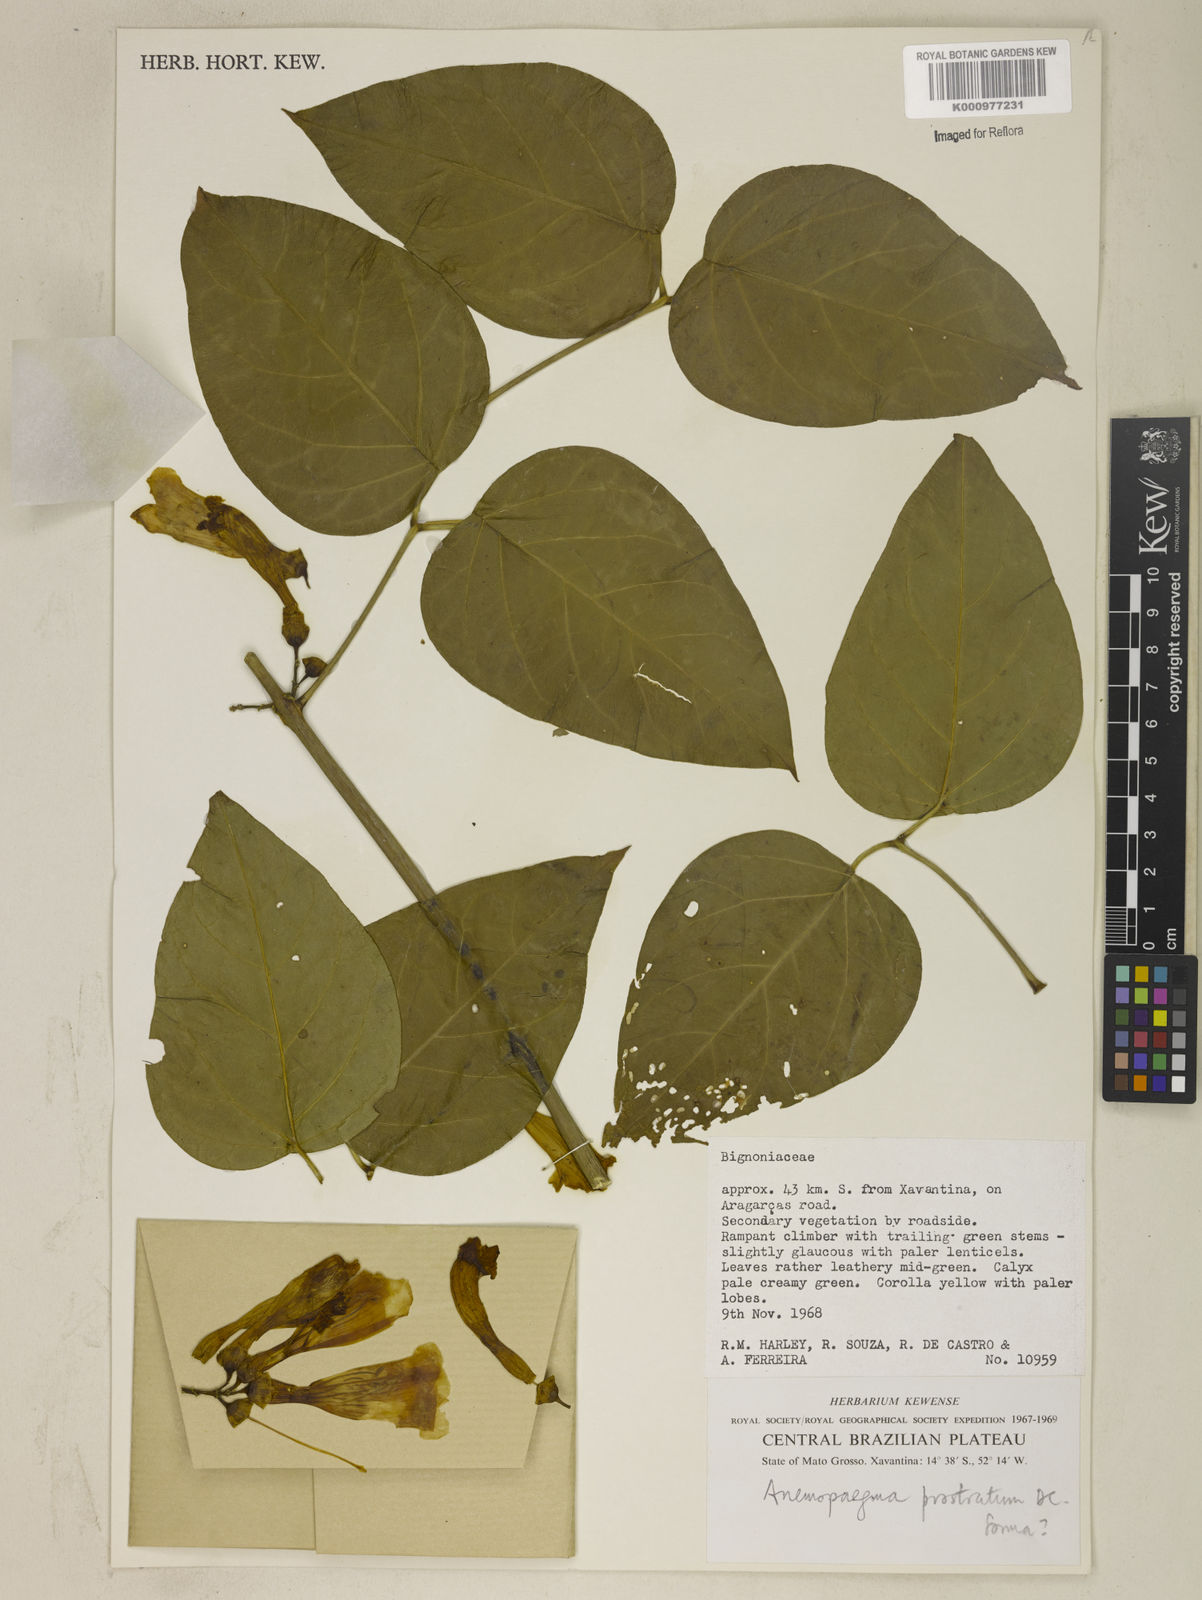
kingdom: Plantae
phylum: Tracheophyta
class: Magnoliopsida
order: Lamiales
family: Bignoniaceae
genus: Anemopaegma
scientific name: Anemopaegma
